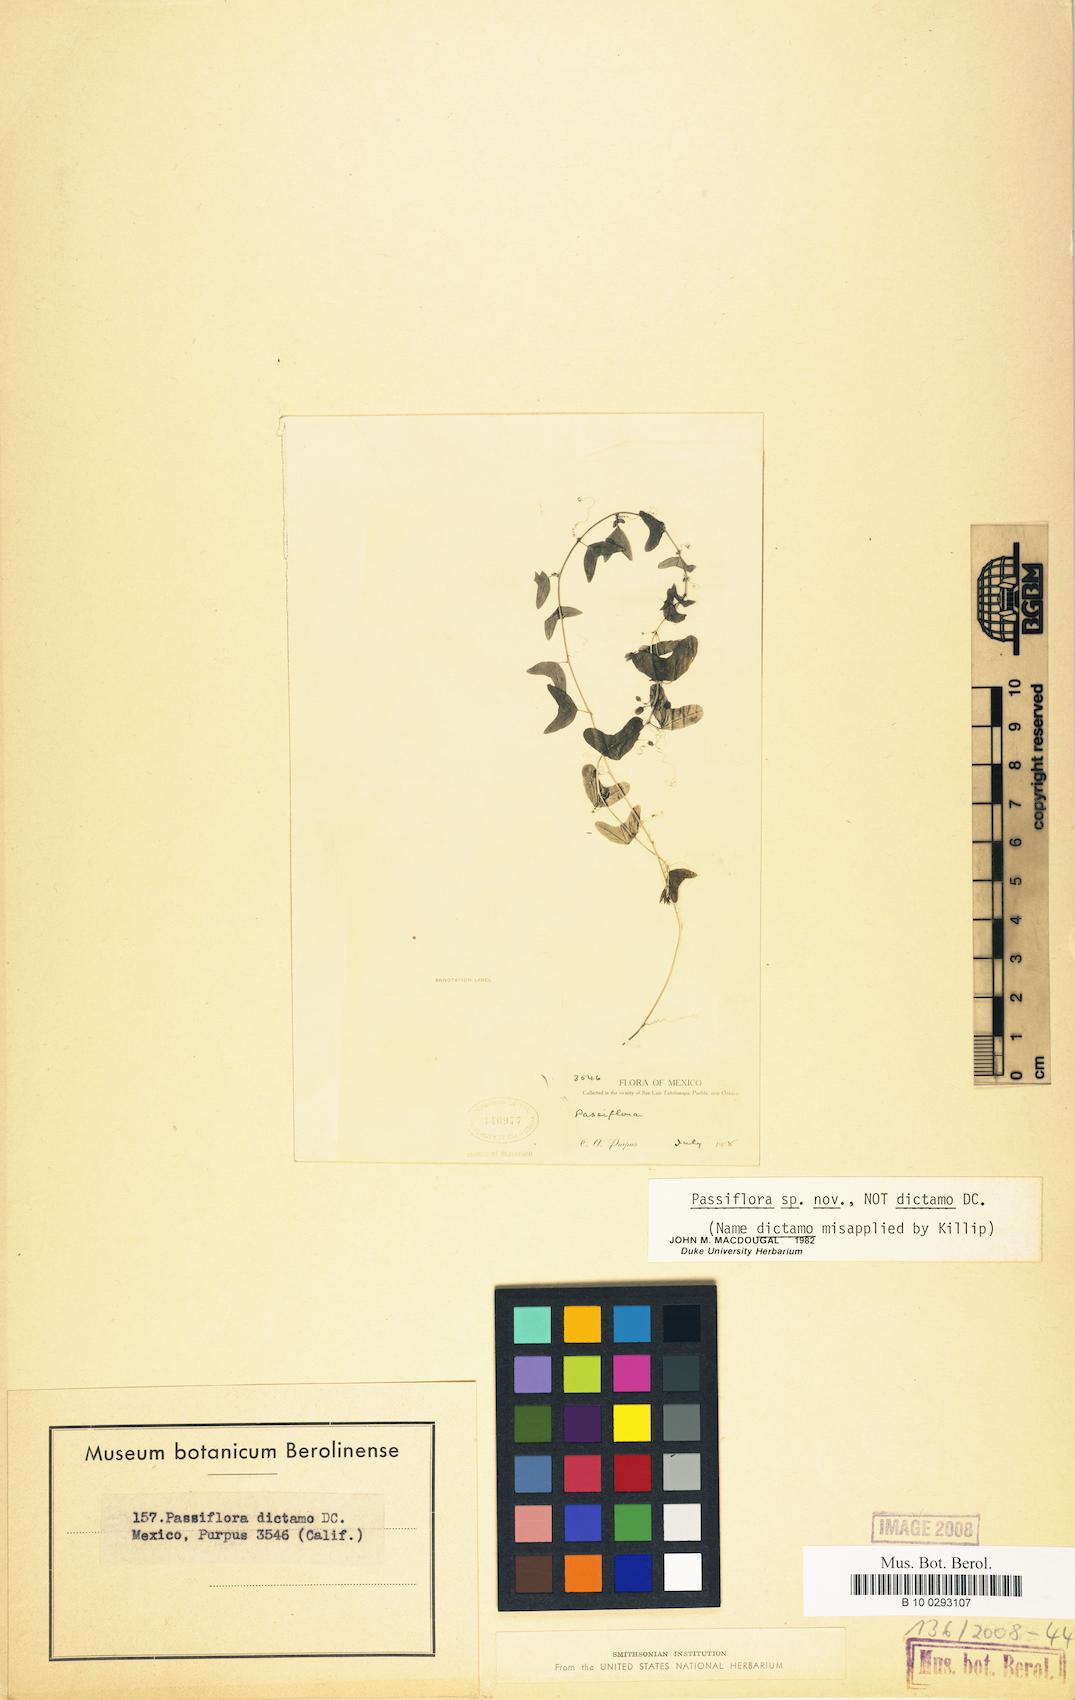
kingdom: Plantae
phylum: Tracheophyta
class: Magnoliopsida
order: Malpighiales
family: Passifloraceae
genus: Passiflora
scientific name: Passiflora
